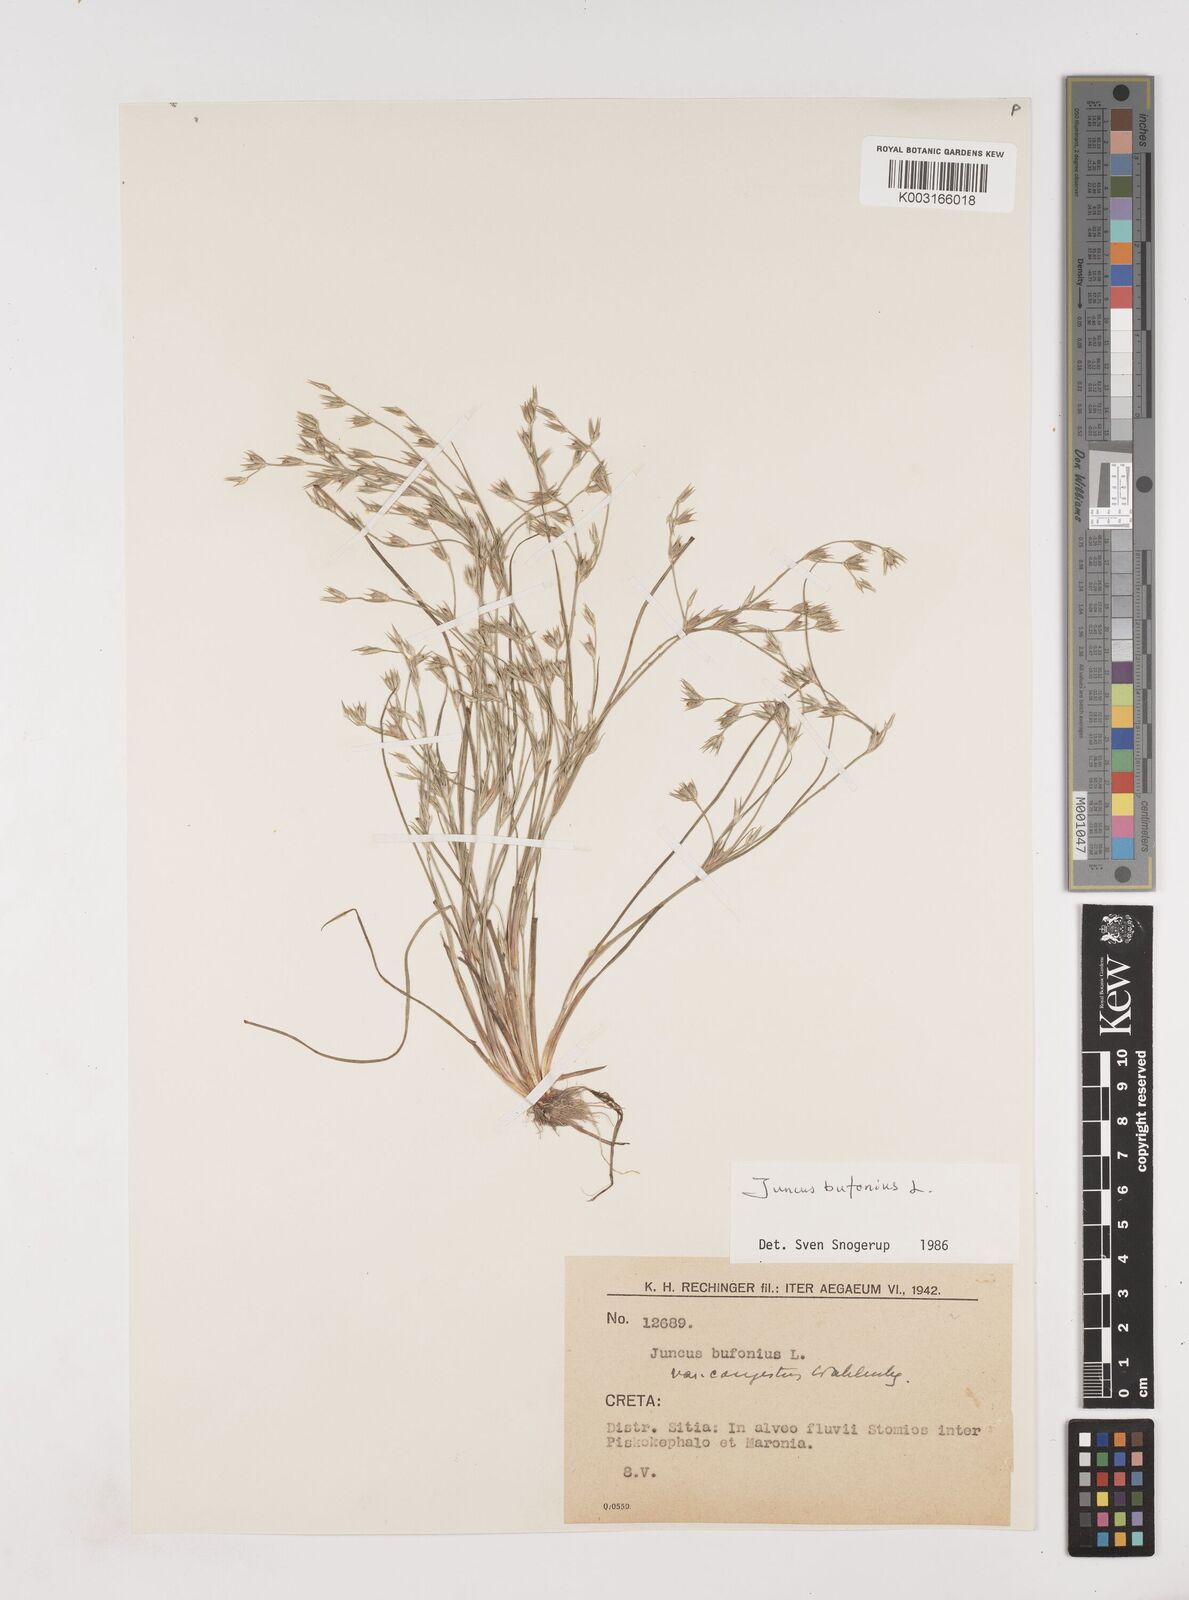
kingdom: Plantae
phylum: Tracheophyta
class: Liliopsida
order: Poales
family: Juncaceae
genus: Juncus
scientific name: Juncus bufonius
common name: Toad rush
